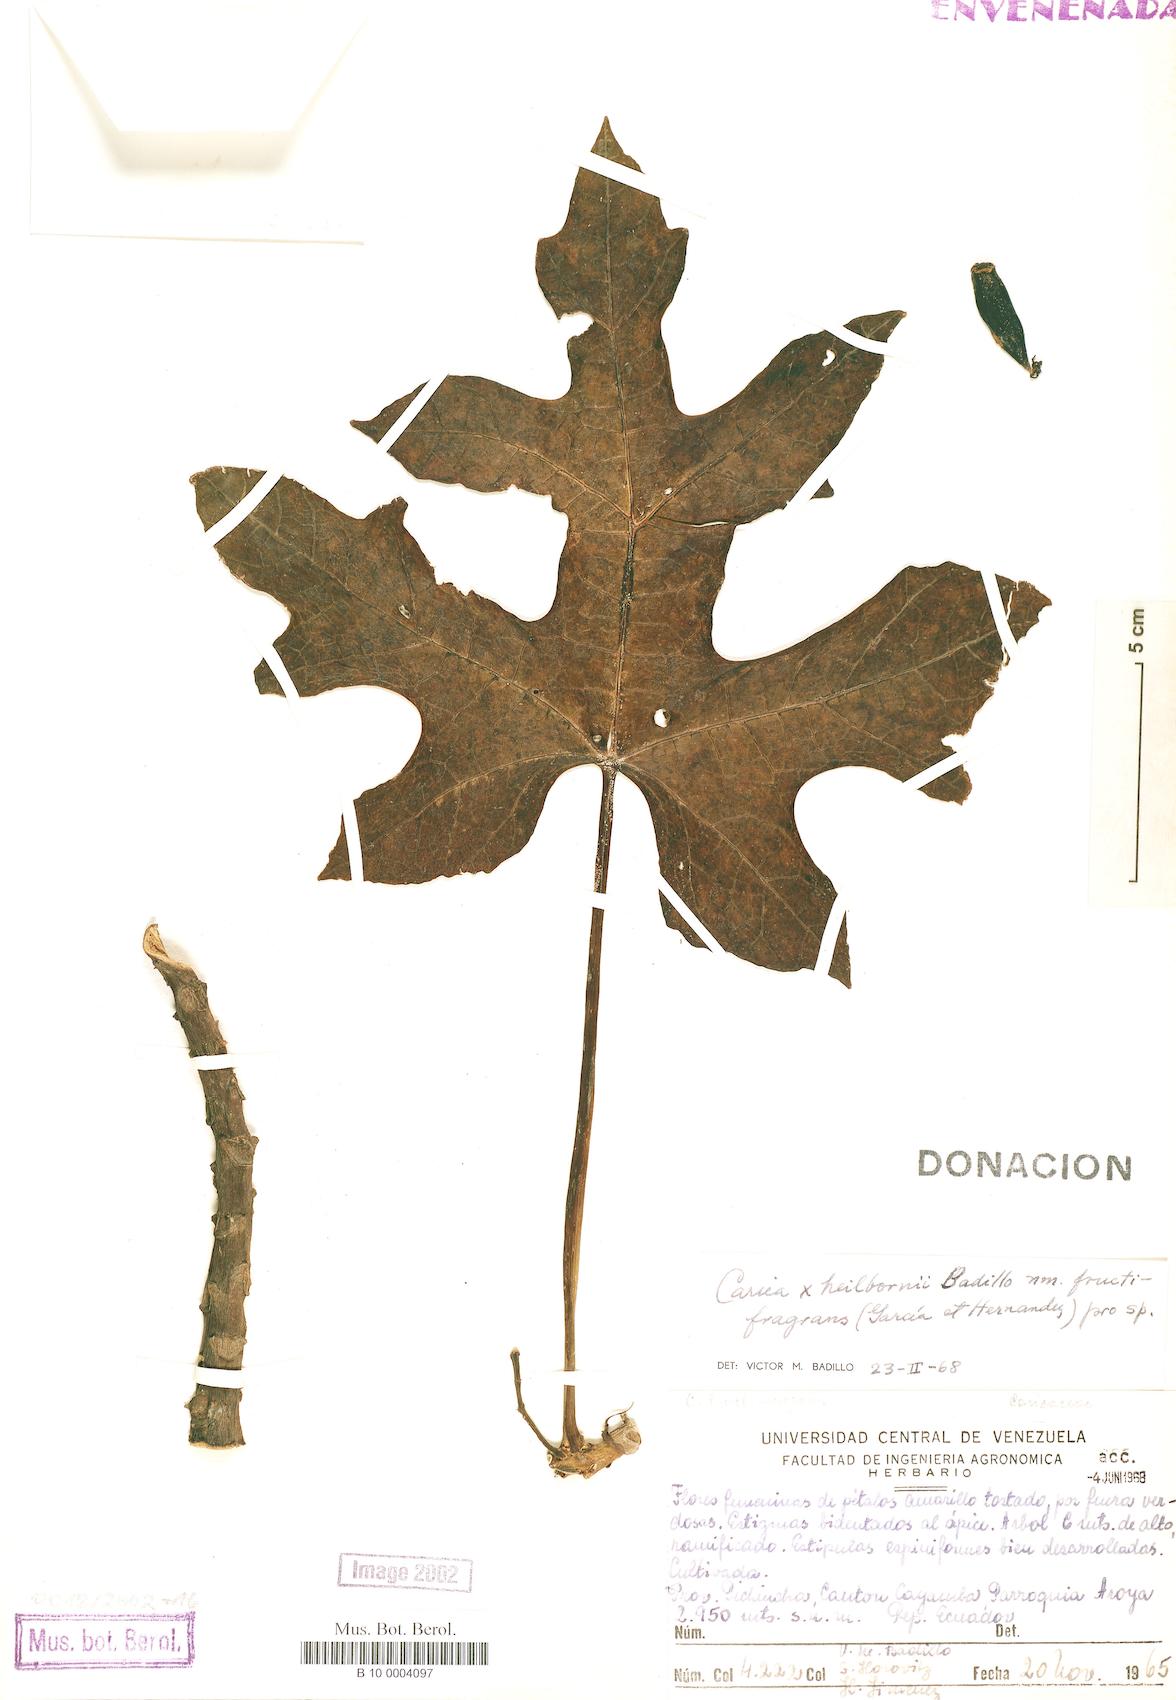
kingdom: Plantae
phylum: Tracheophyta
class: Magnoliopsida
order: Brassicales
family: Caricaceae
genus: Vasconcellea
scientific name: Vasconcellea pentagona
